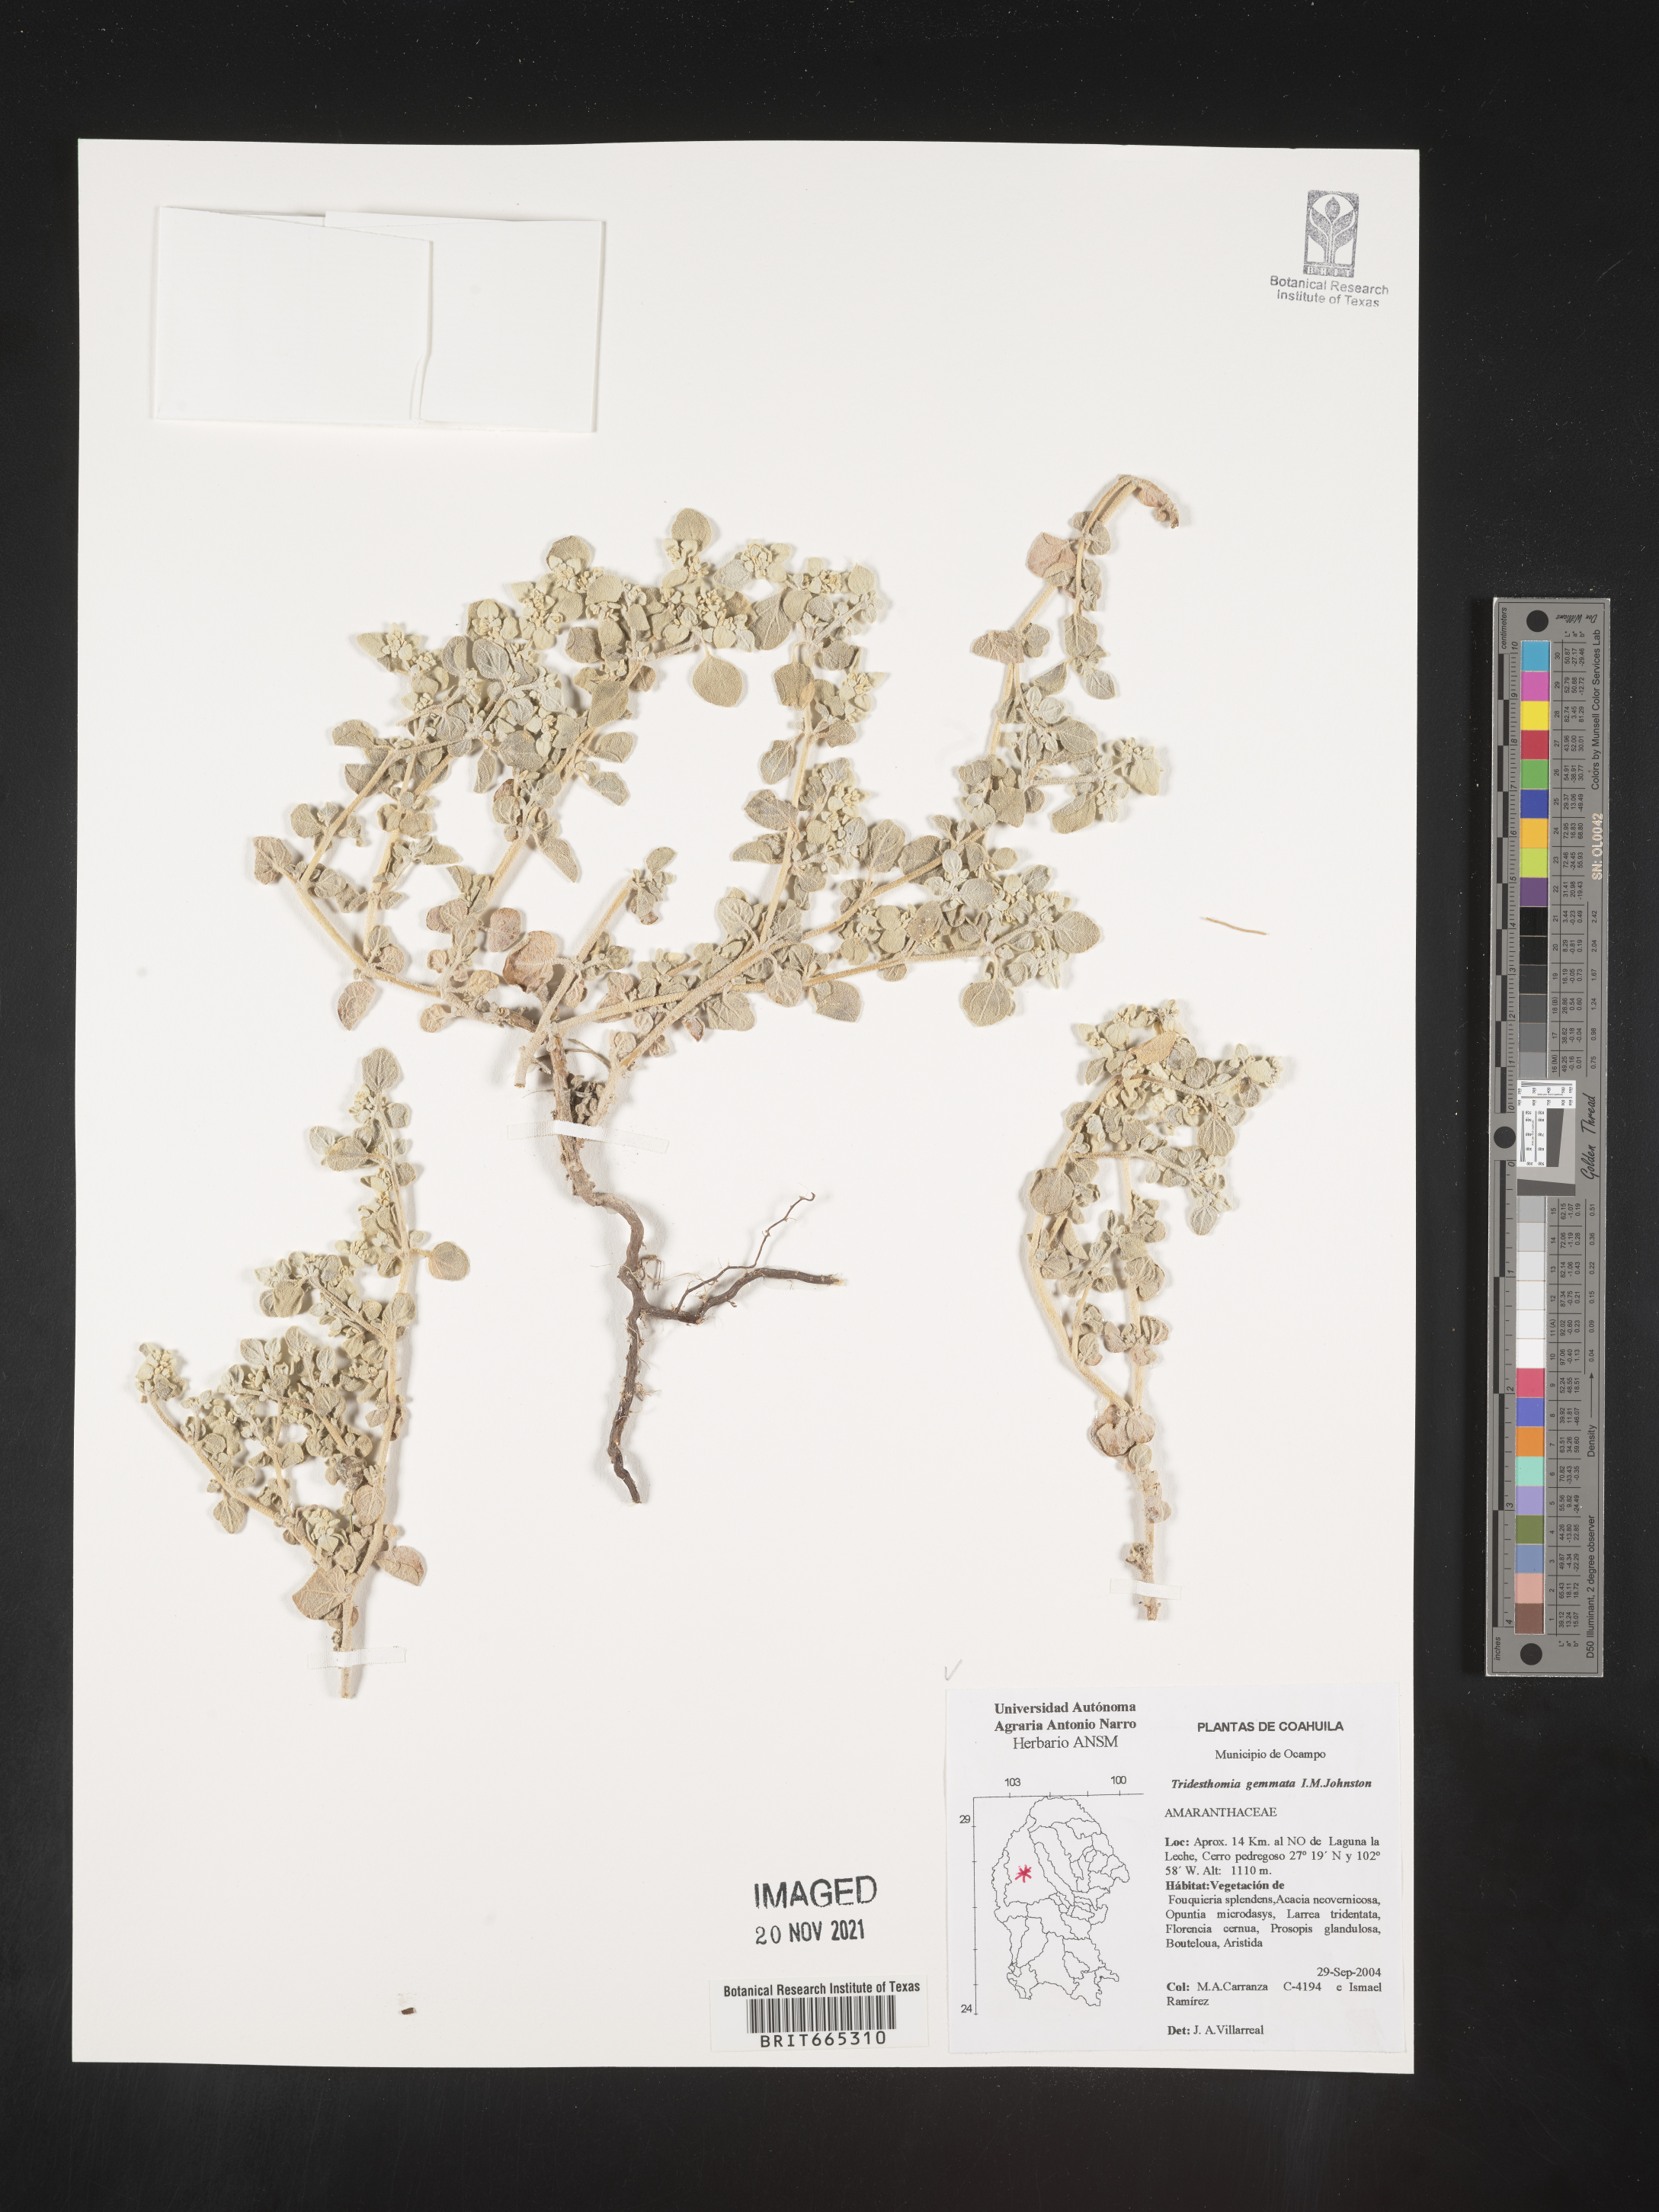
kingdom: Plantae
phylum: Tracheophyta
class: Magnoliopsida
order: Caryophyllales
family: Amaranthaceae
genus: Tidestromia
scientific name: Tidestromia
